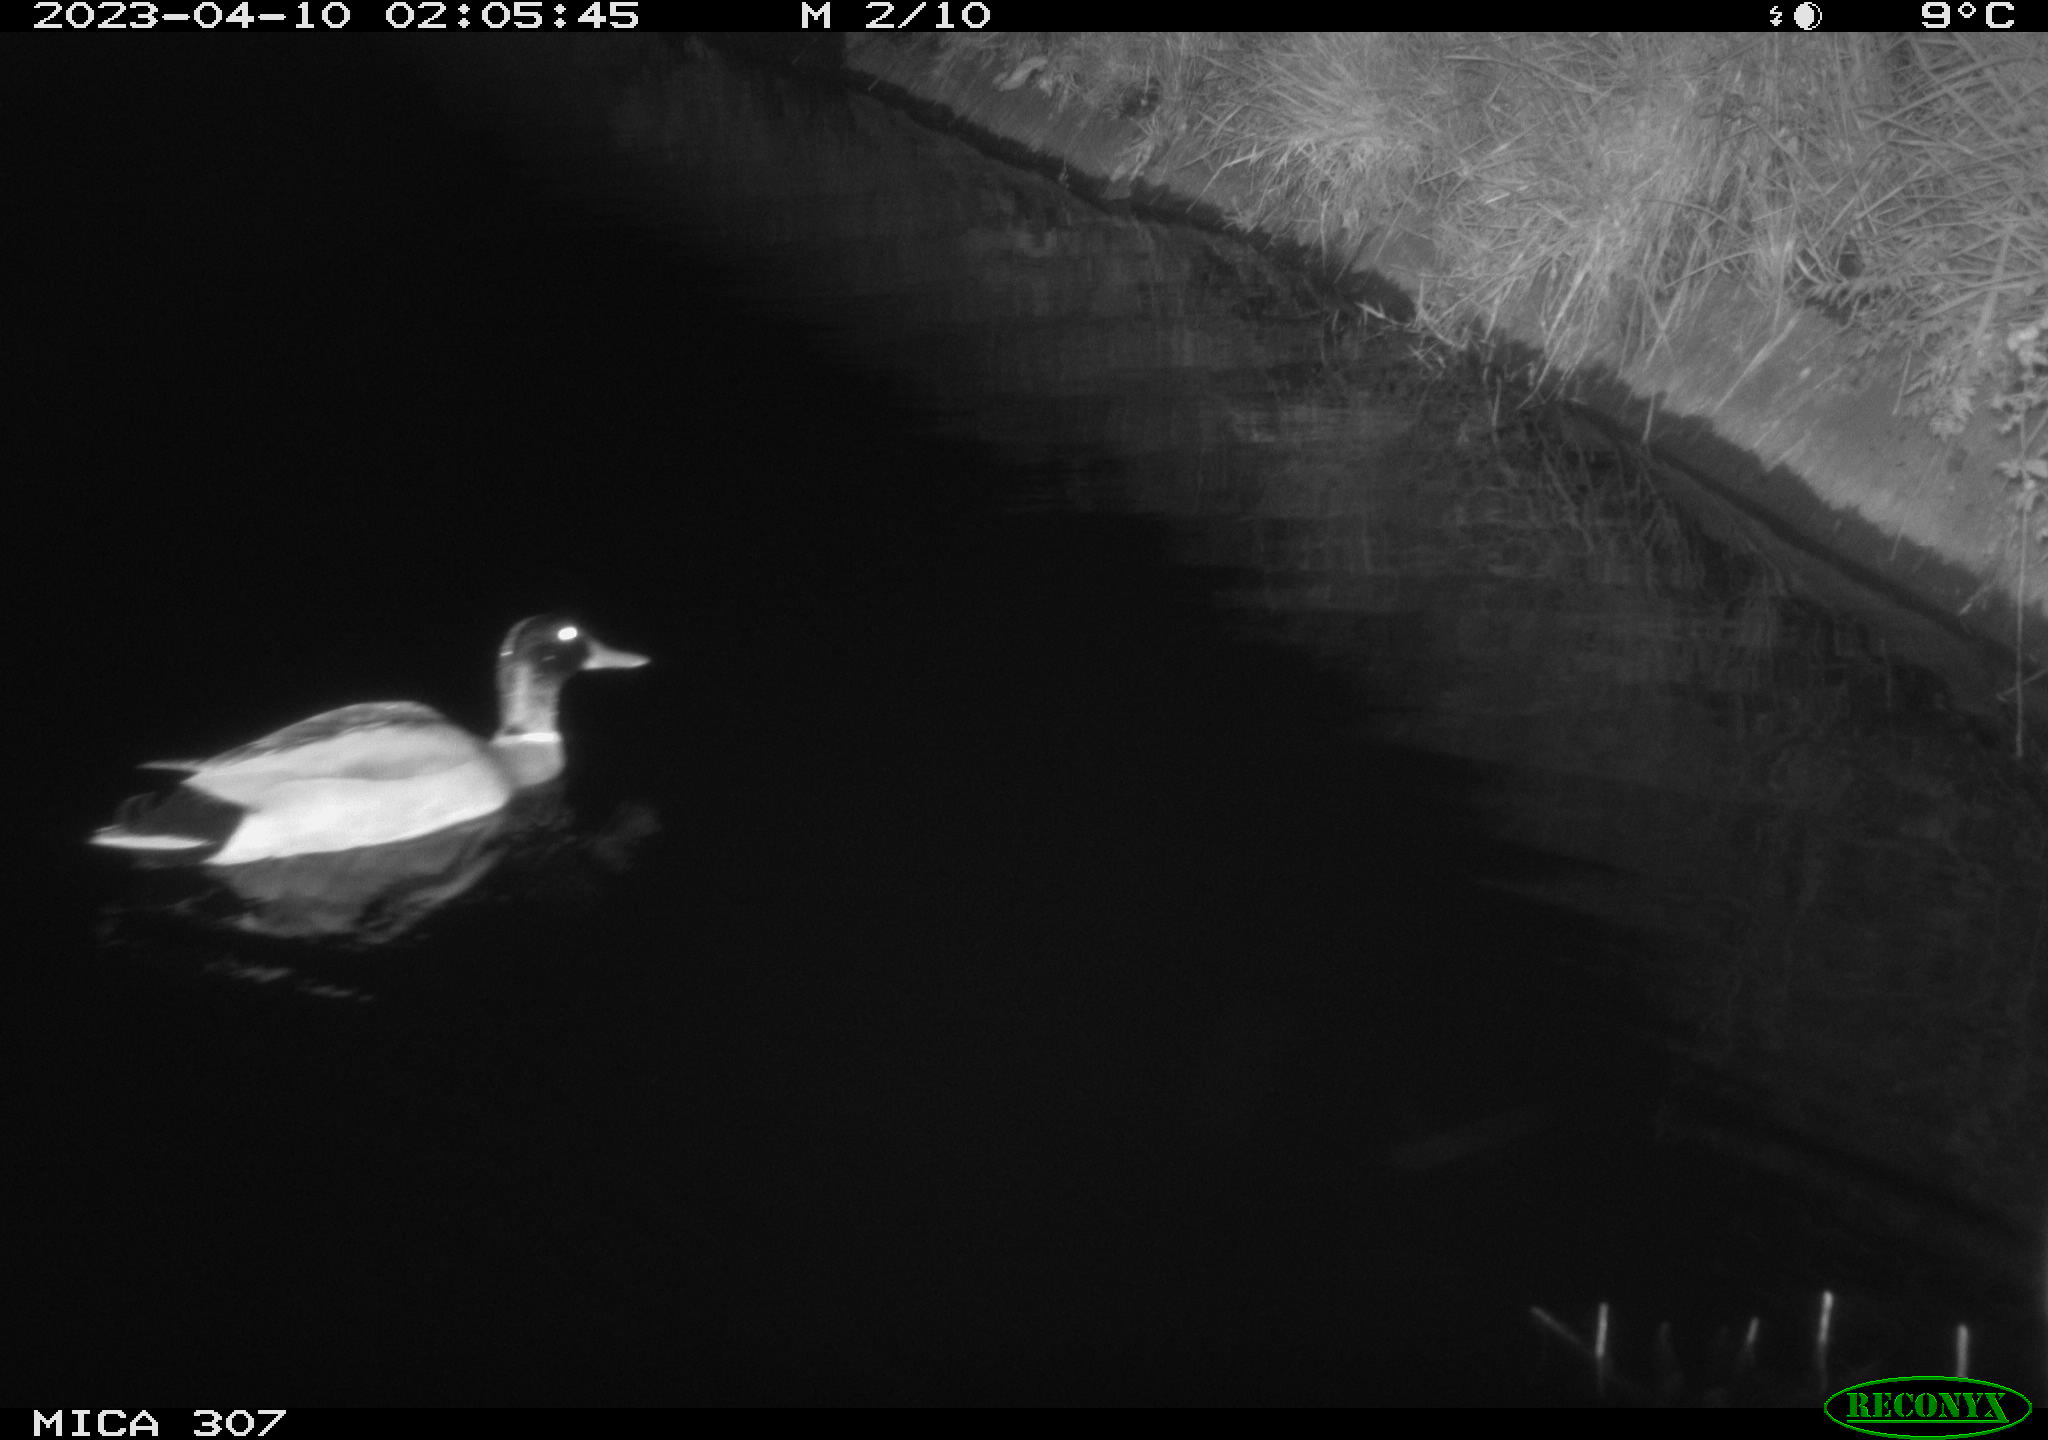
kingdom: Animalia
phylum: Chordata
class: Aves
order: Anseriformes
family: Anatidae
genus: Anas
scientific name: Anas
